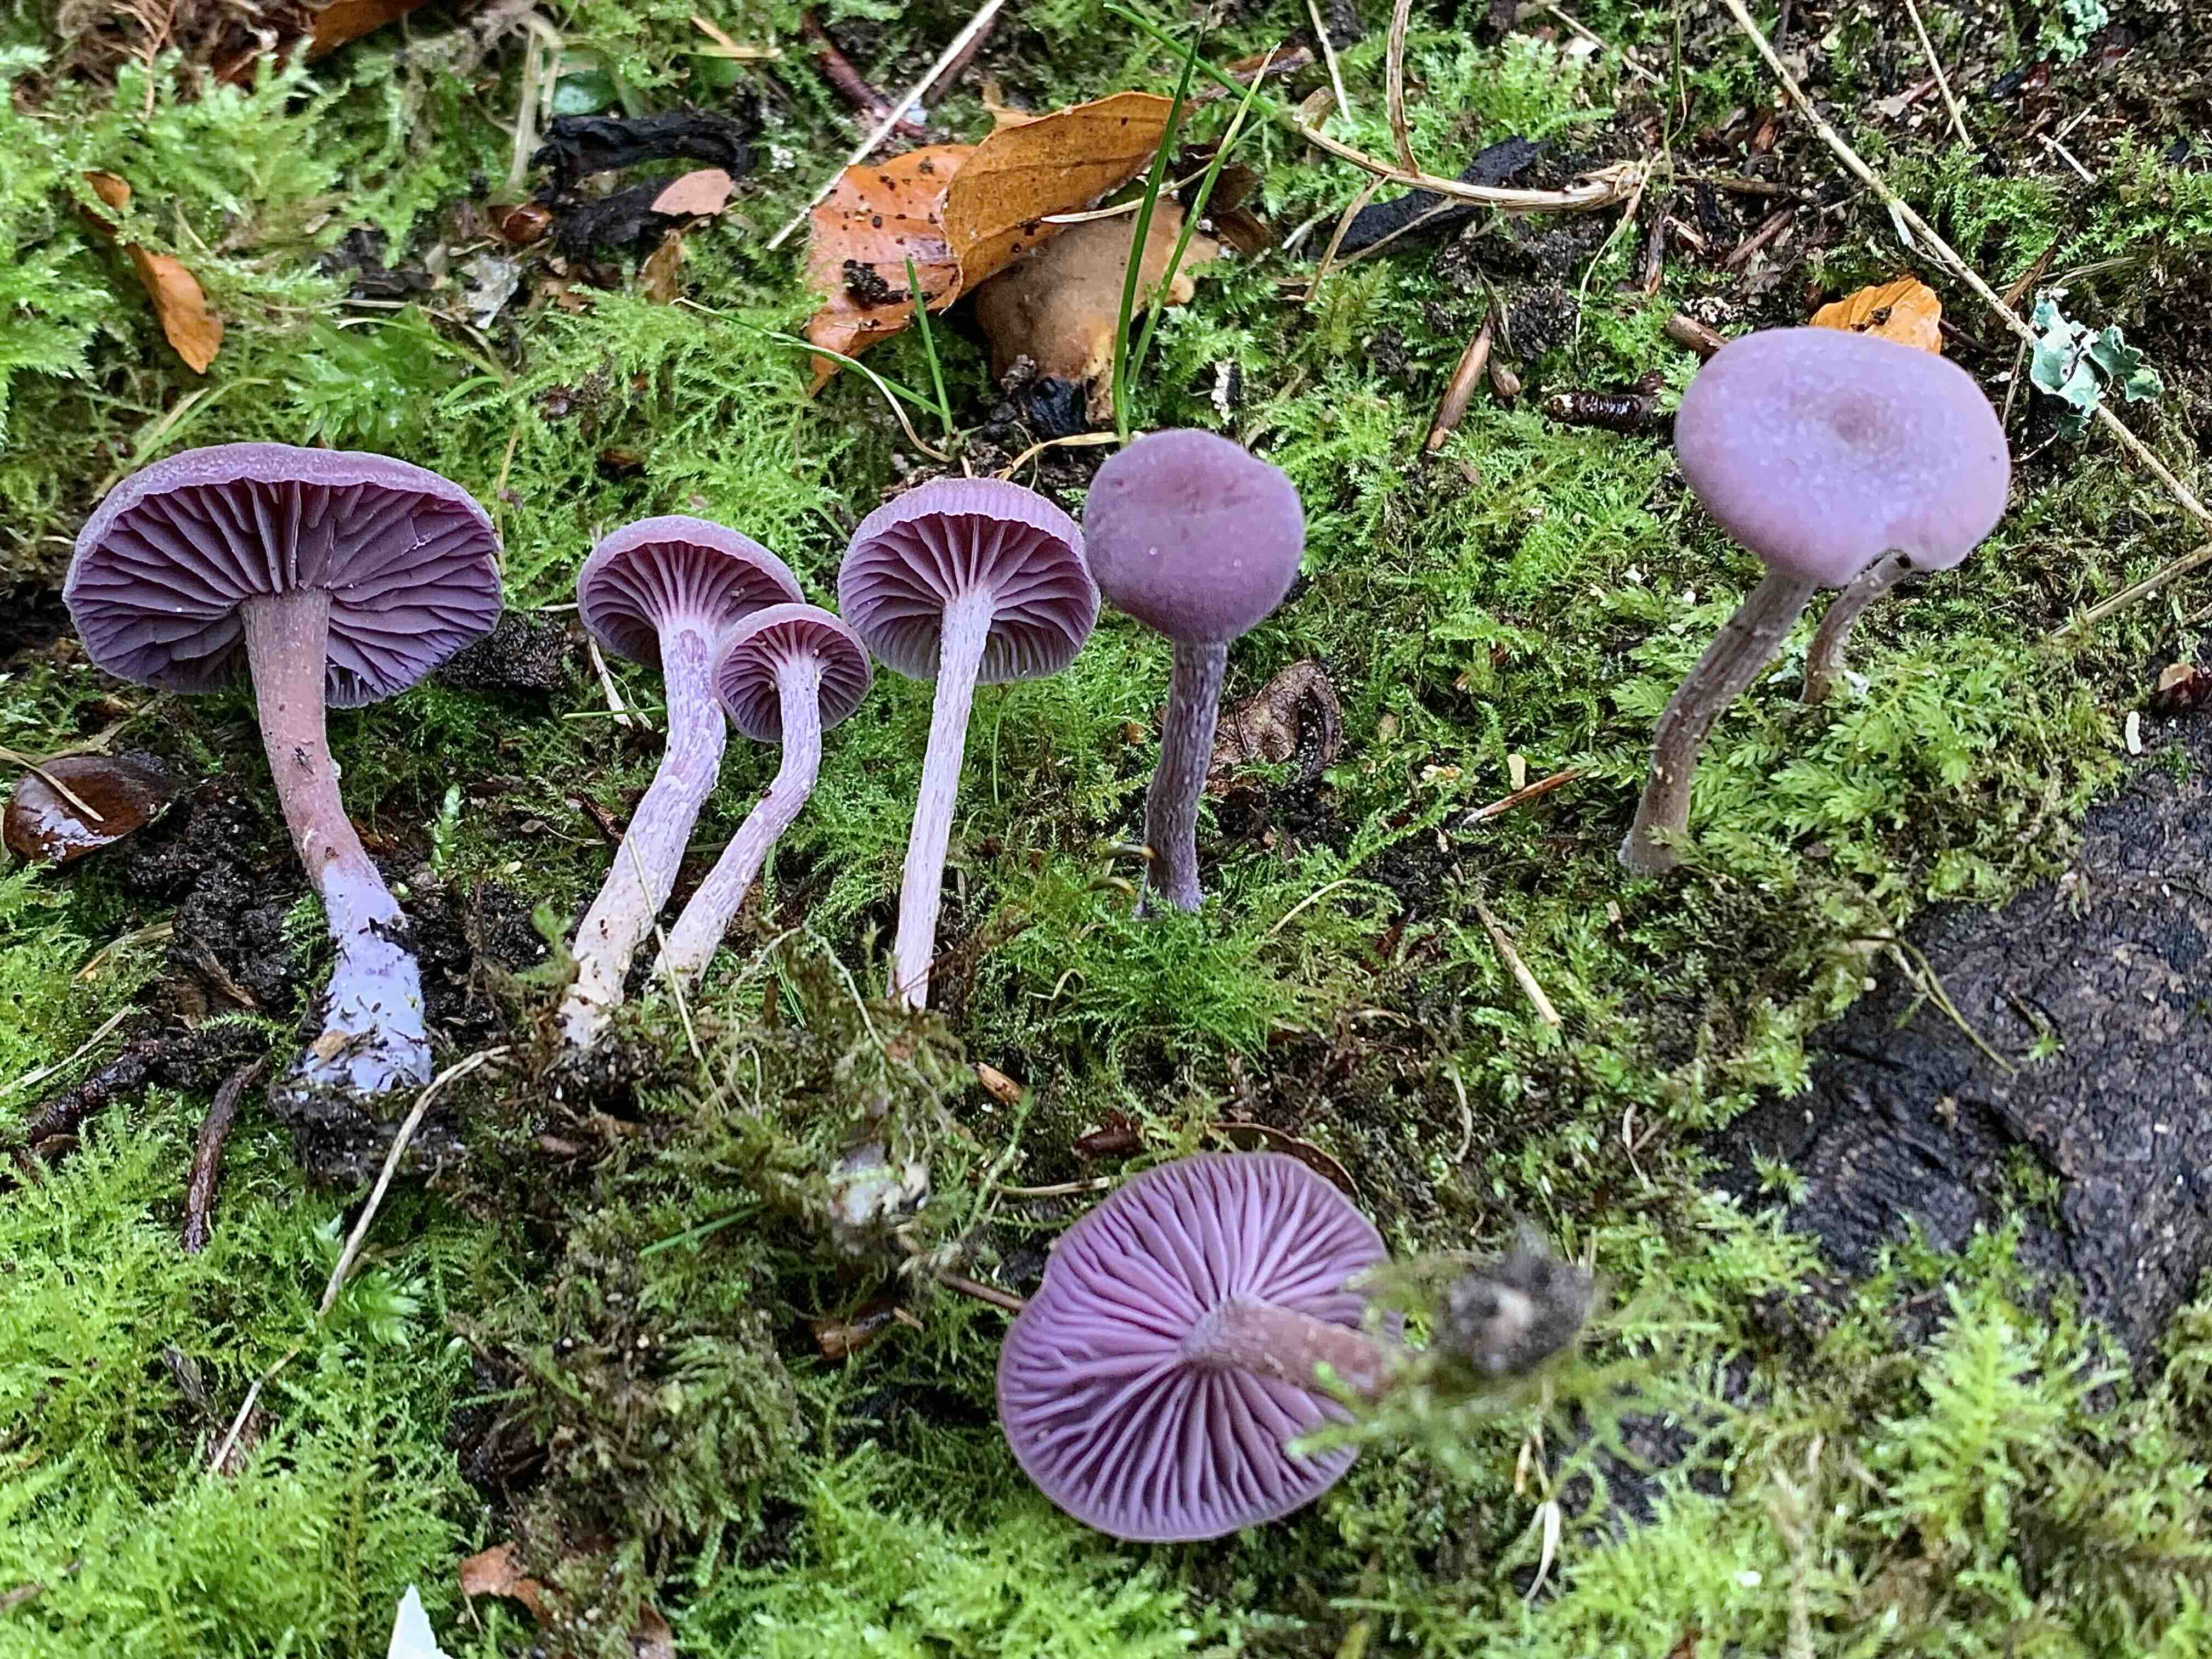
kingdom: Fungi
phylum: Basidiomycota
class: Agaricomycetes
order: Agaricales
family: Hydnangiaceae
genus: Laccaria
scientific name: Laccaria amethystina
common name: violet ametysthat
